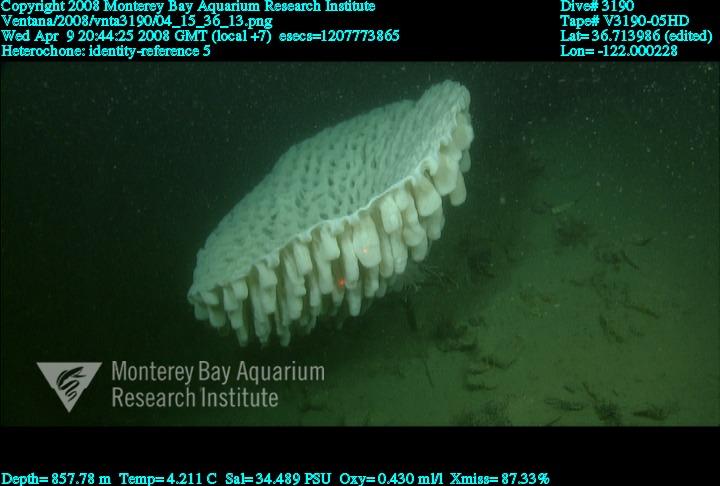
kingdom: Animalia
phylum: Porifera
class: Hexactinellida
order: Sceptrulophora
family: Aphrocallistidae
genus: Heterochone
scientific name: Heterochone
